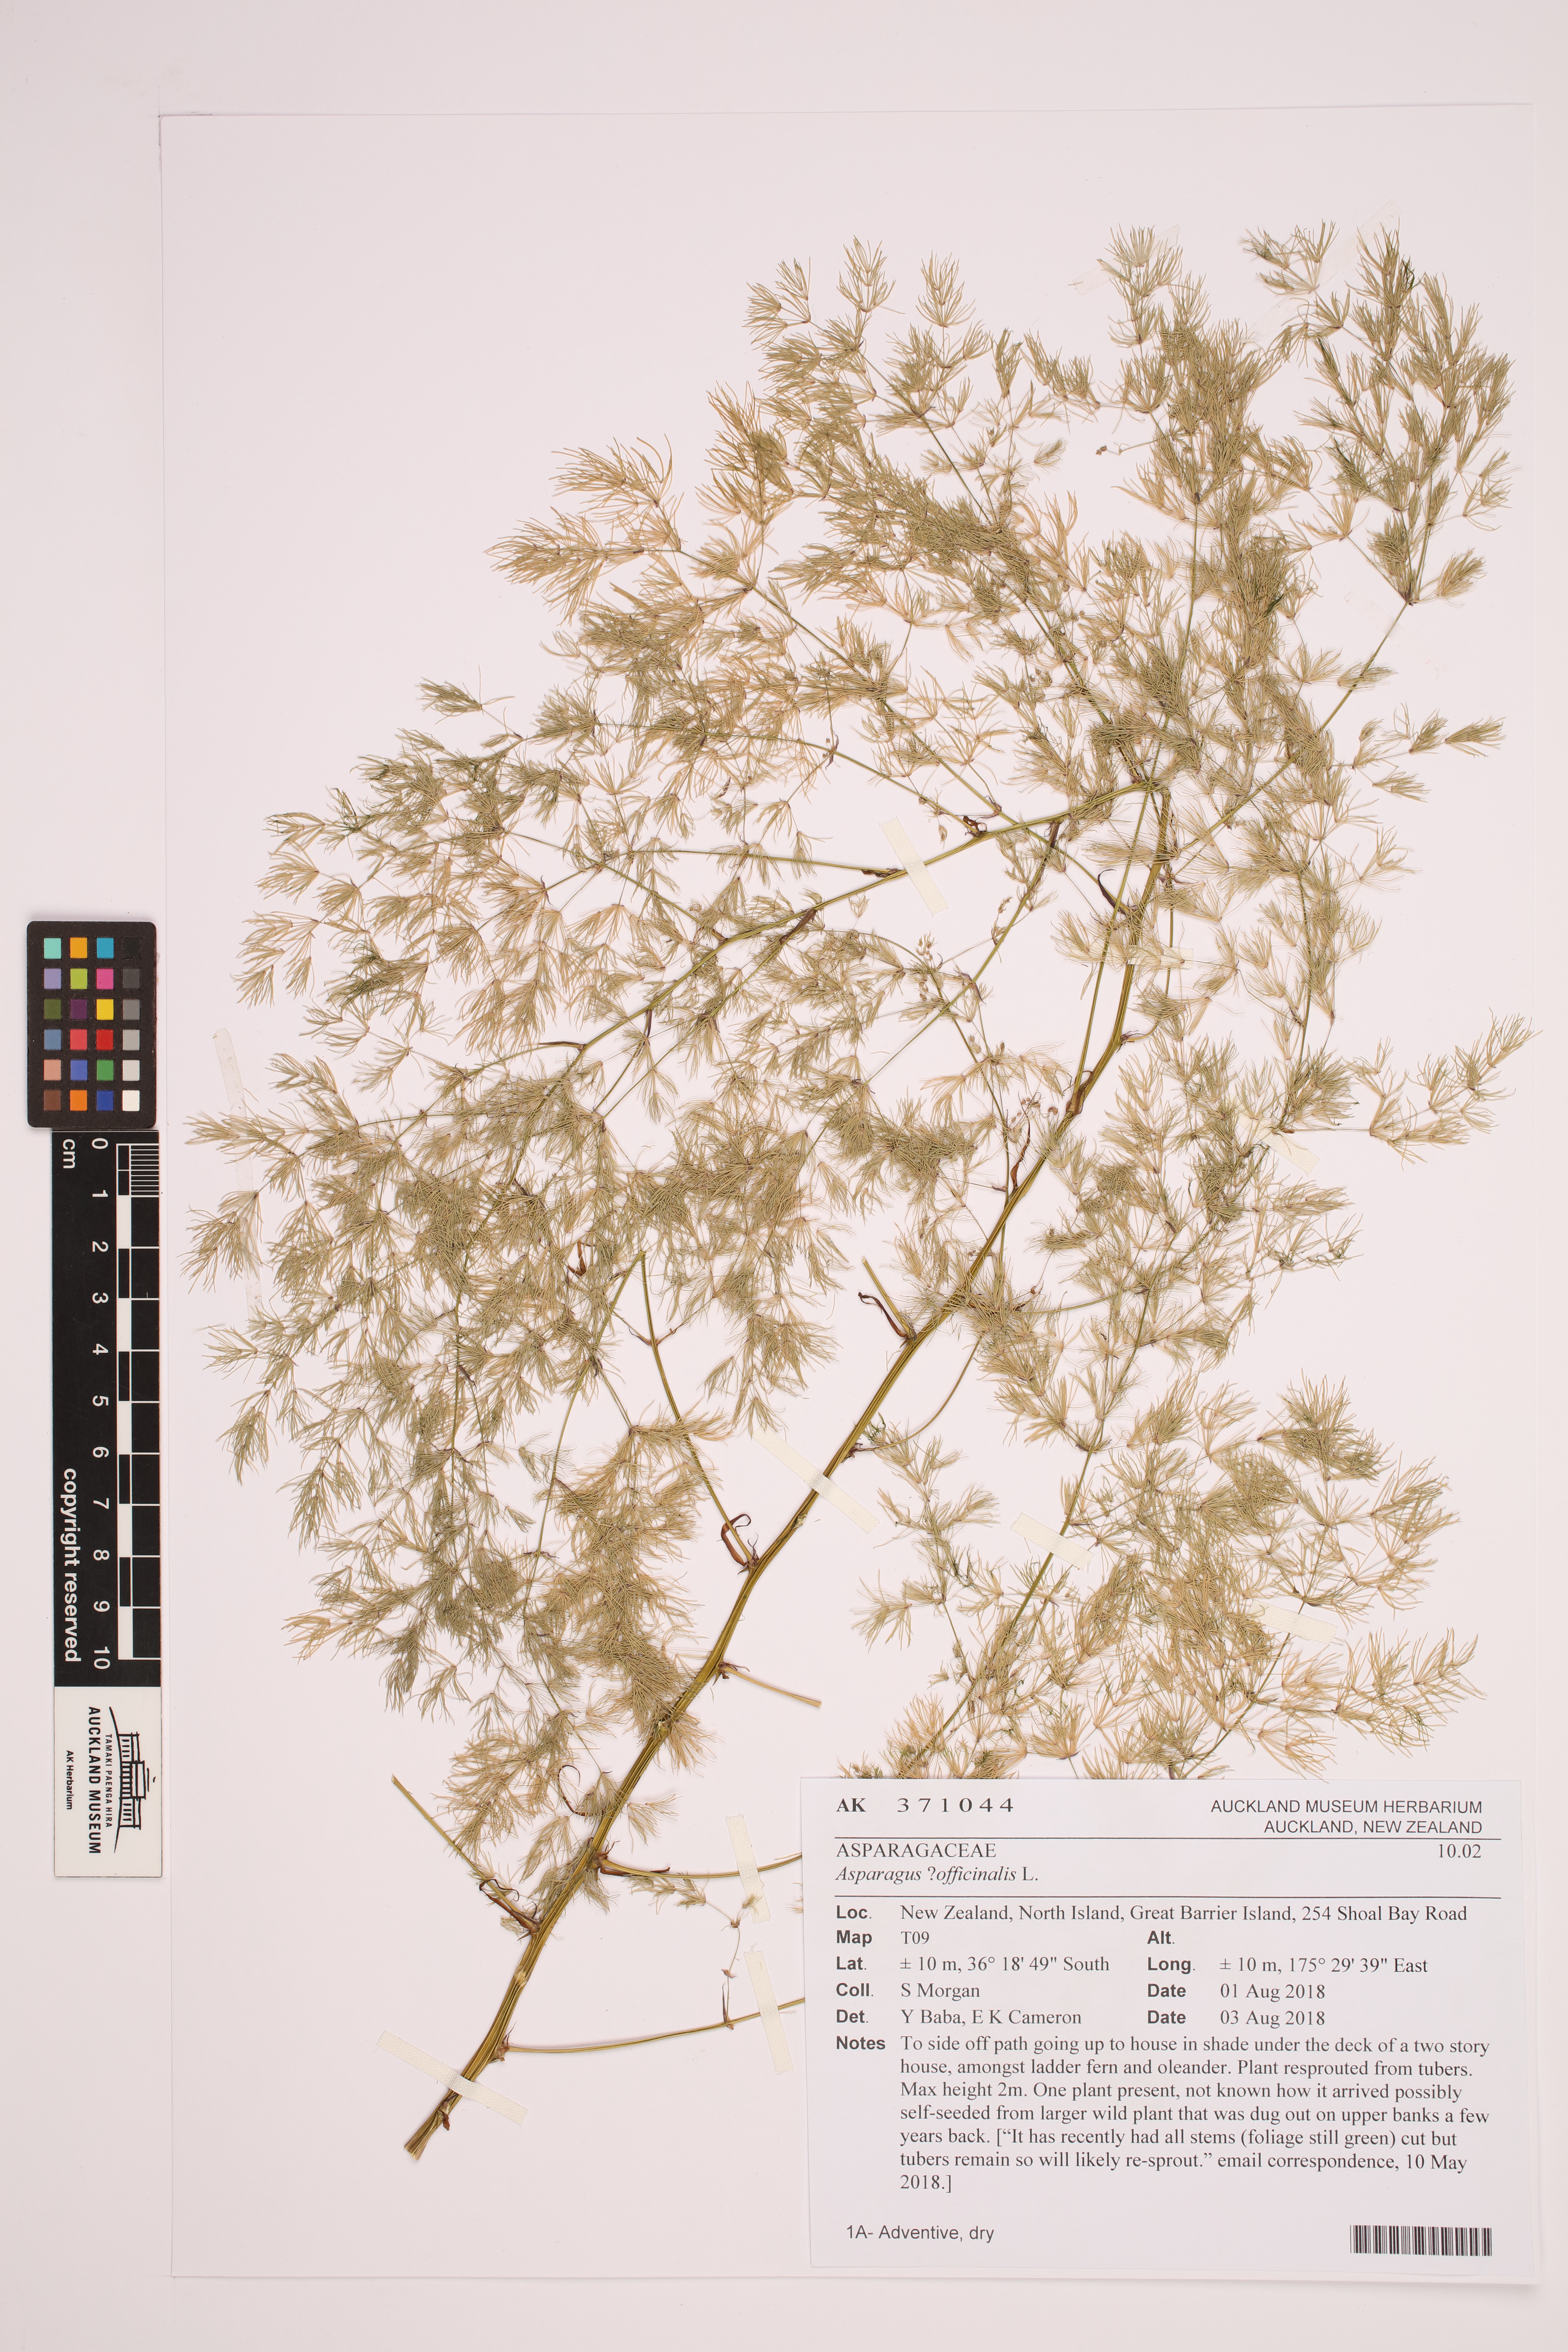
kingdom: Plantae
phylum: Tracheophyta
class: Liliopsida
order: Asparagales
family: Asparagaceae
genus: Asparagus
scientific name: Asparagus officinalis
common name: Garden asparagus
